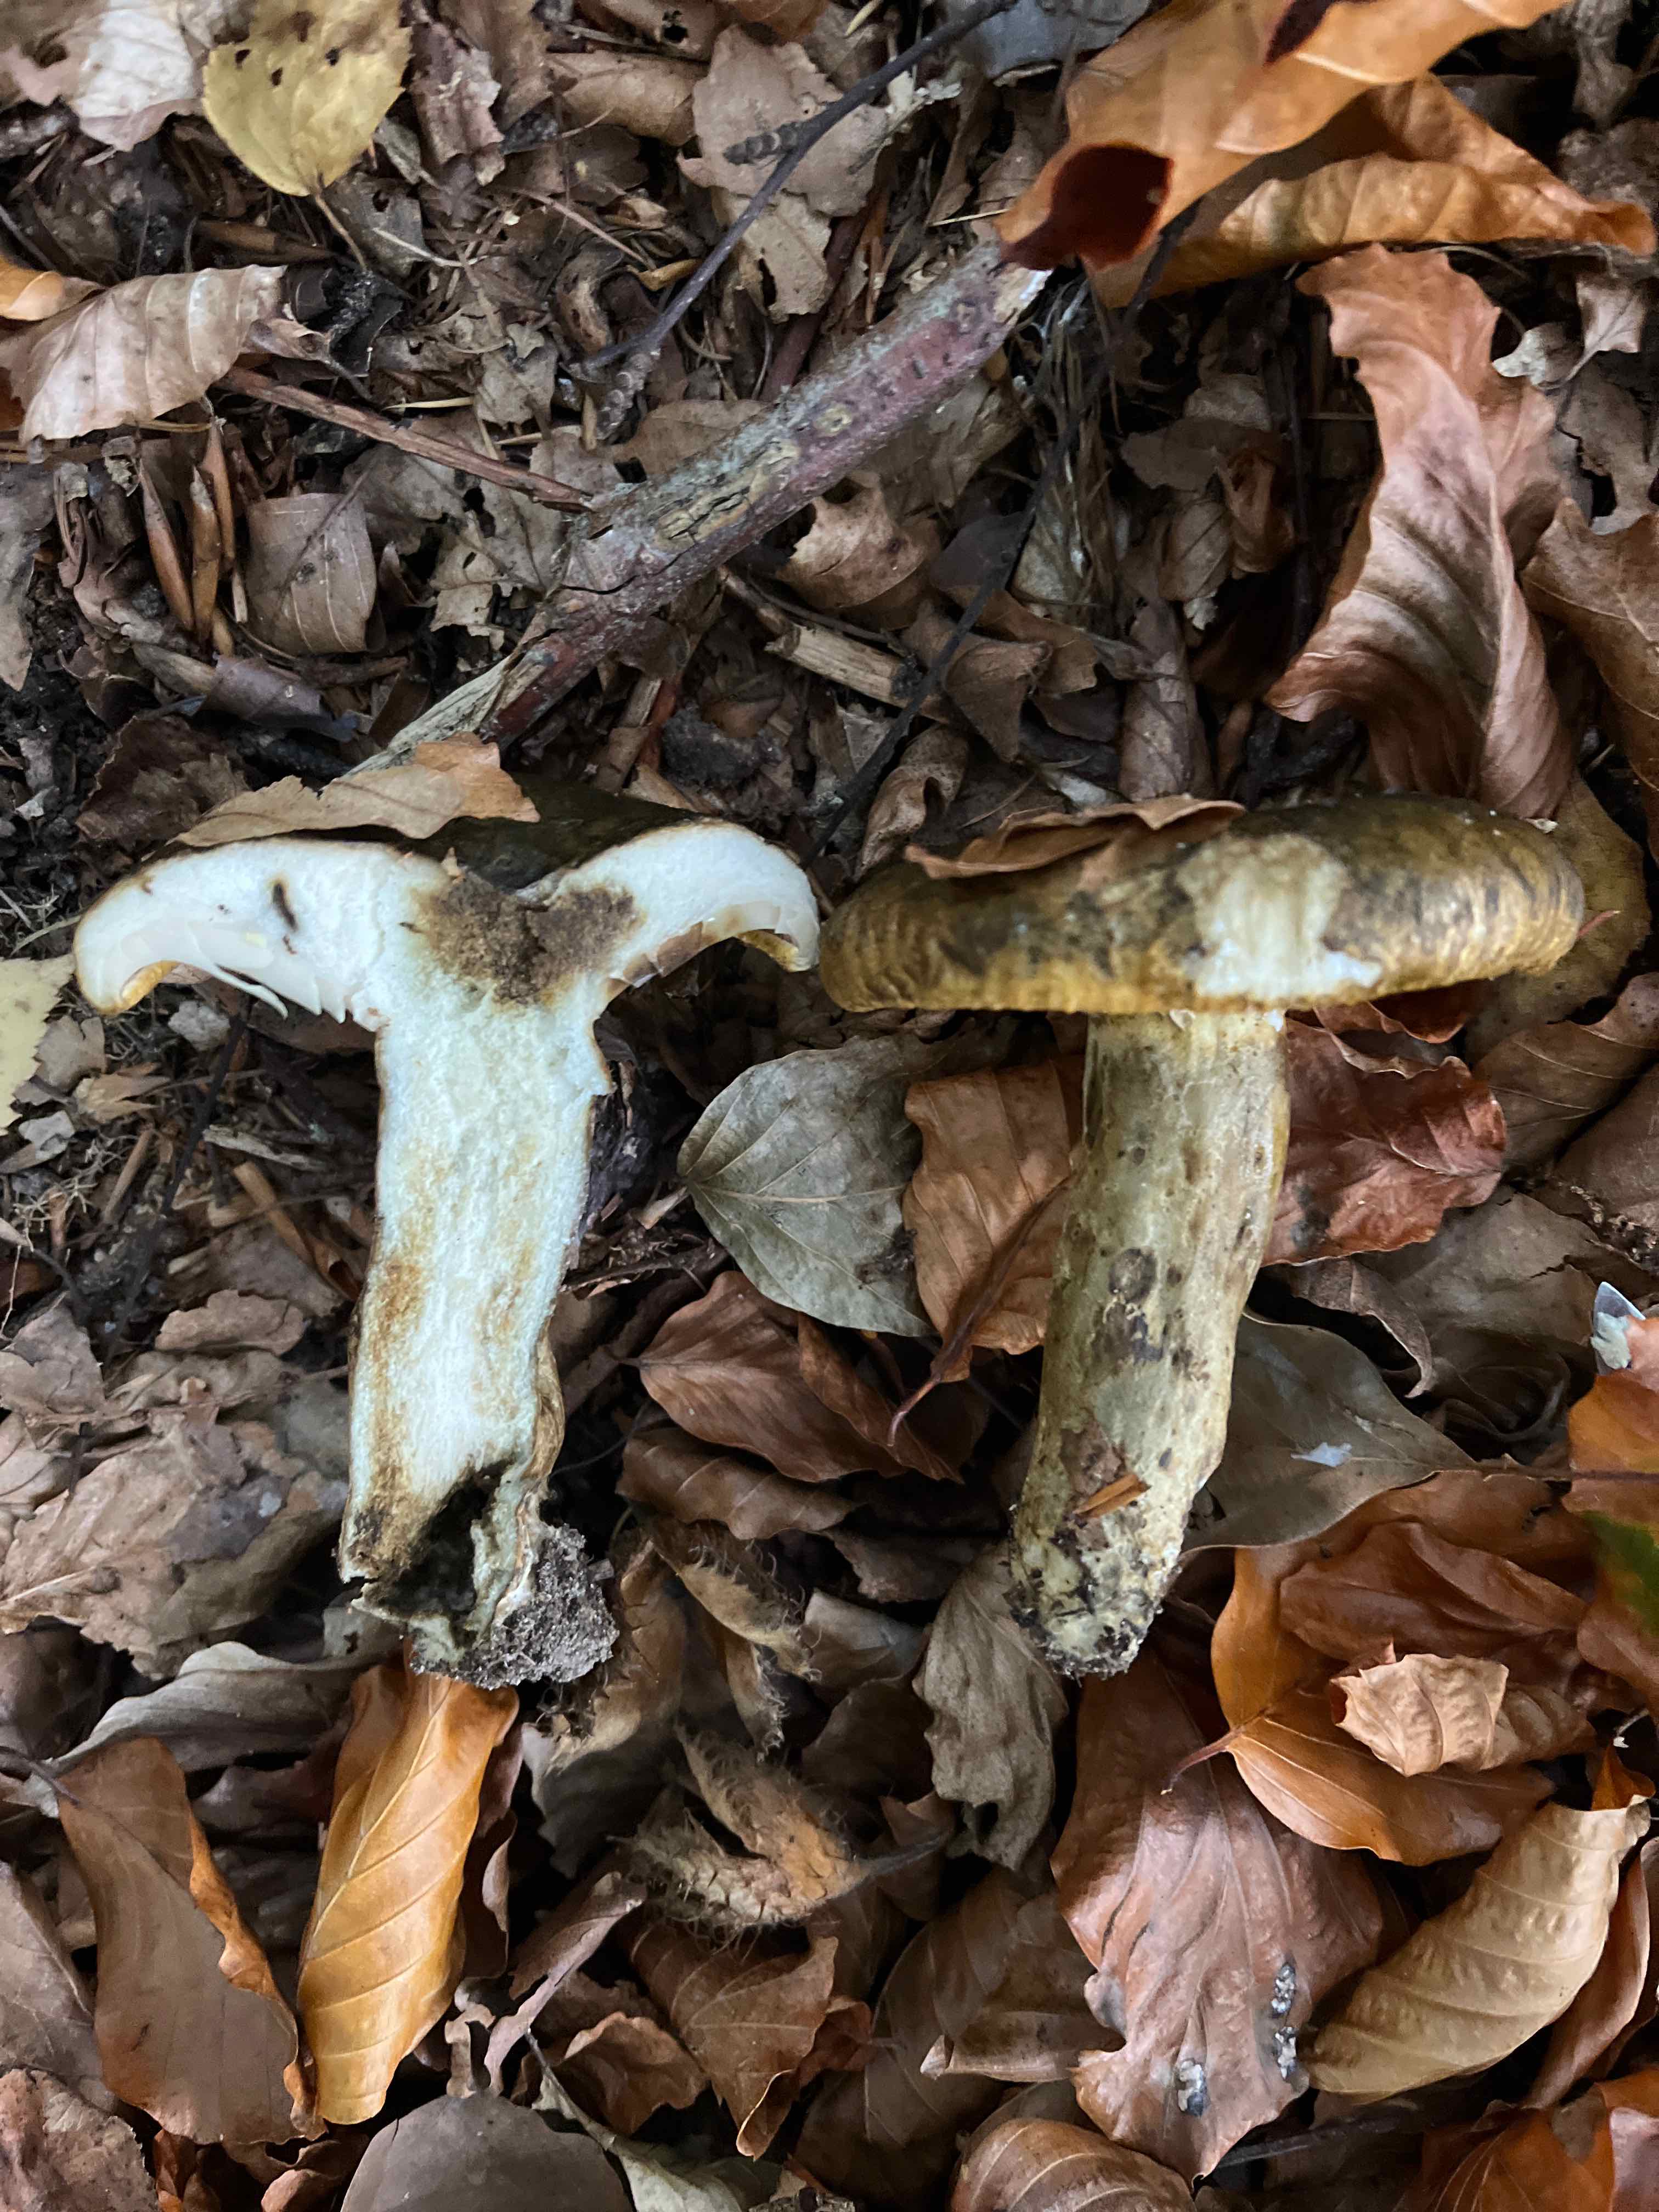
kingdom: Fungi
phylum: Basidiomycota
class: Agaricomycetes
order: Russulales
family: Russulaceae
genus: Lactarius
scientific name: Lactarius necator
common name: manddraber-mælkehat
